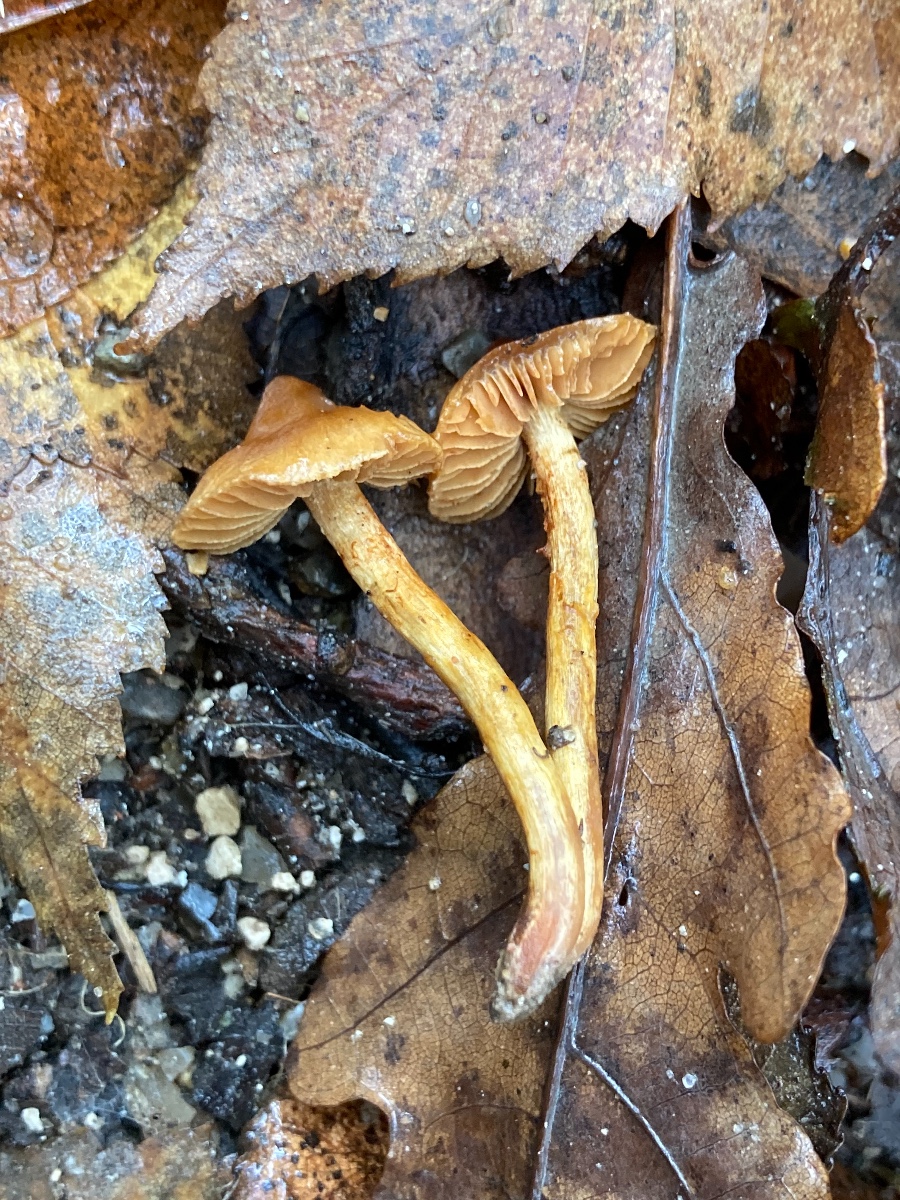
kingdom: Fungi
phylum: Basidiomycota
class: Agaricomycetes
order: Agaricales
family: Cortinariaceae
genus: Cortinarius
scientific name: Cortinarius paludosaniosus
